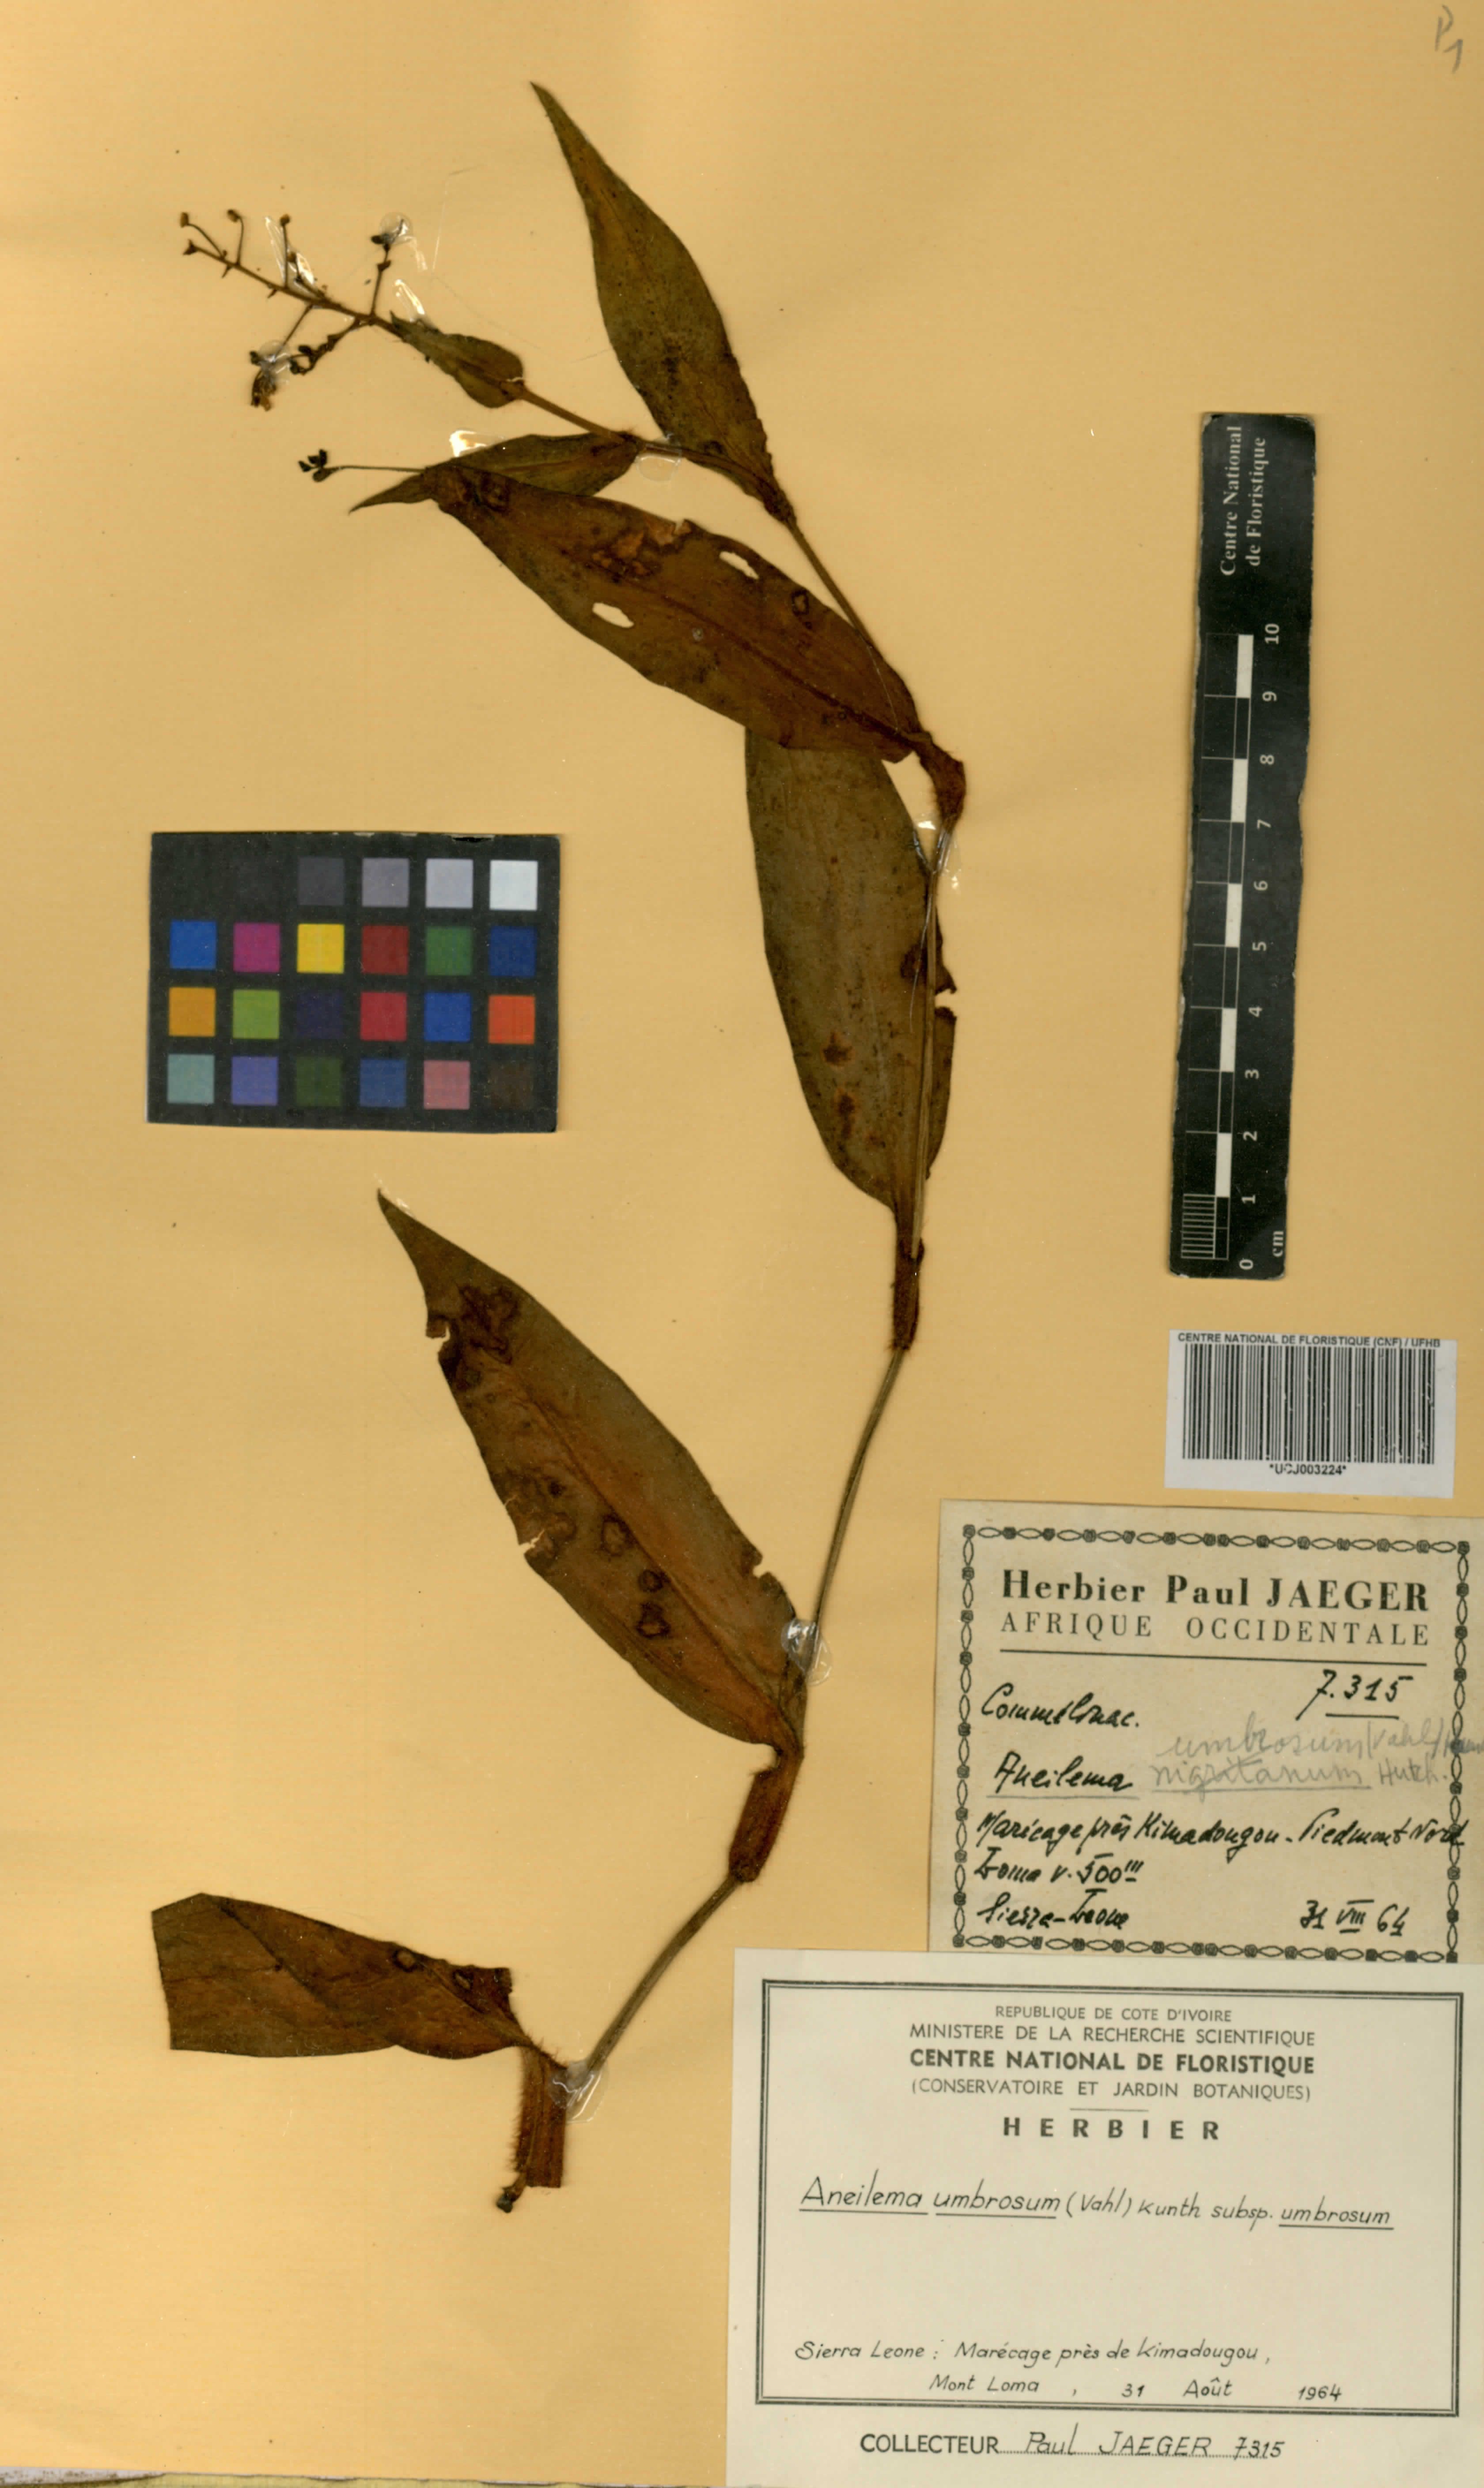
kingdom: Plantae
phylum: Tracheophyta
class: Liliopsida
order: Commelinales
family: Commelinaceae
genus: Aneilema
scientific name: Aneilema umbrosum
